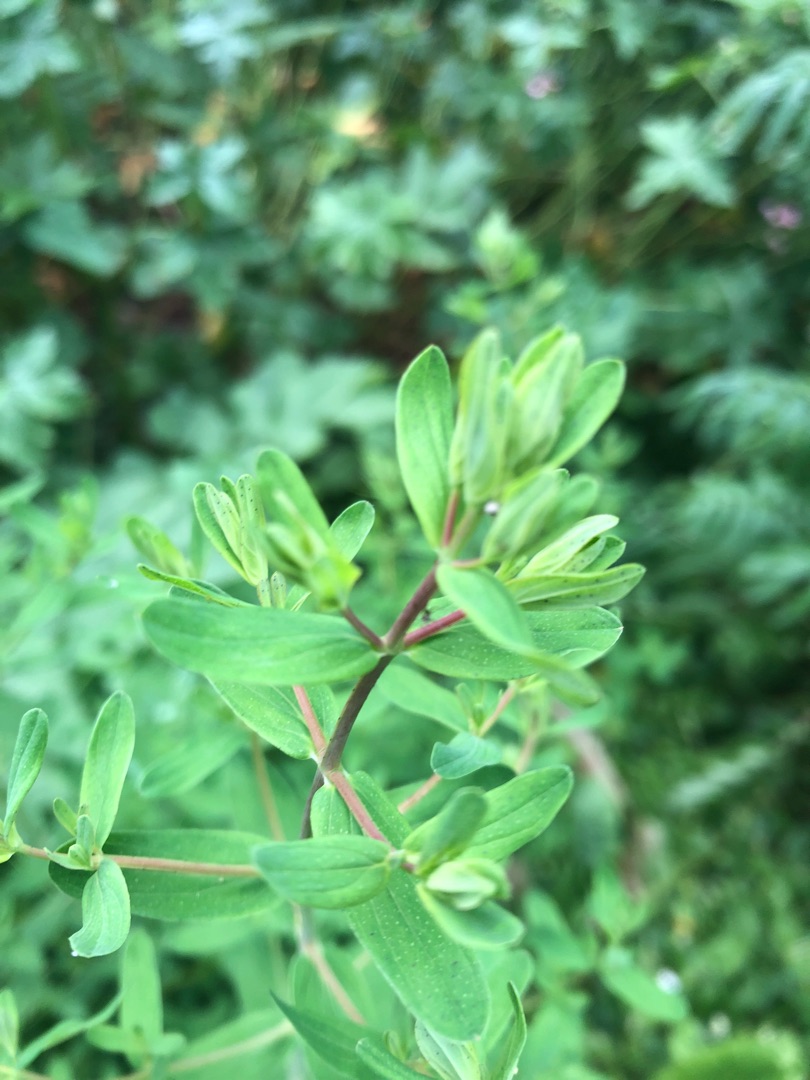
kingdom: Plantae
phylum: Tracheophyta
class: Magnoliopsida
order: Malpighiales
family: Hypericaceae
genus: Hypericum
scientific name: Hypericum perforatum
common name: Prikbladet perikon
